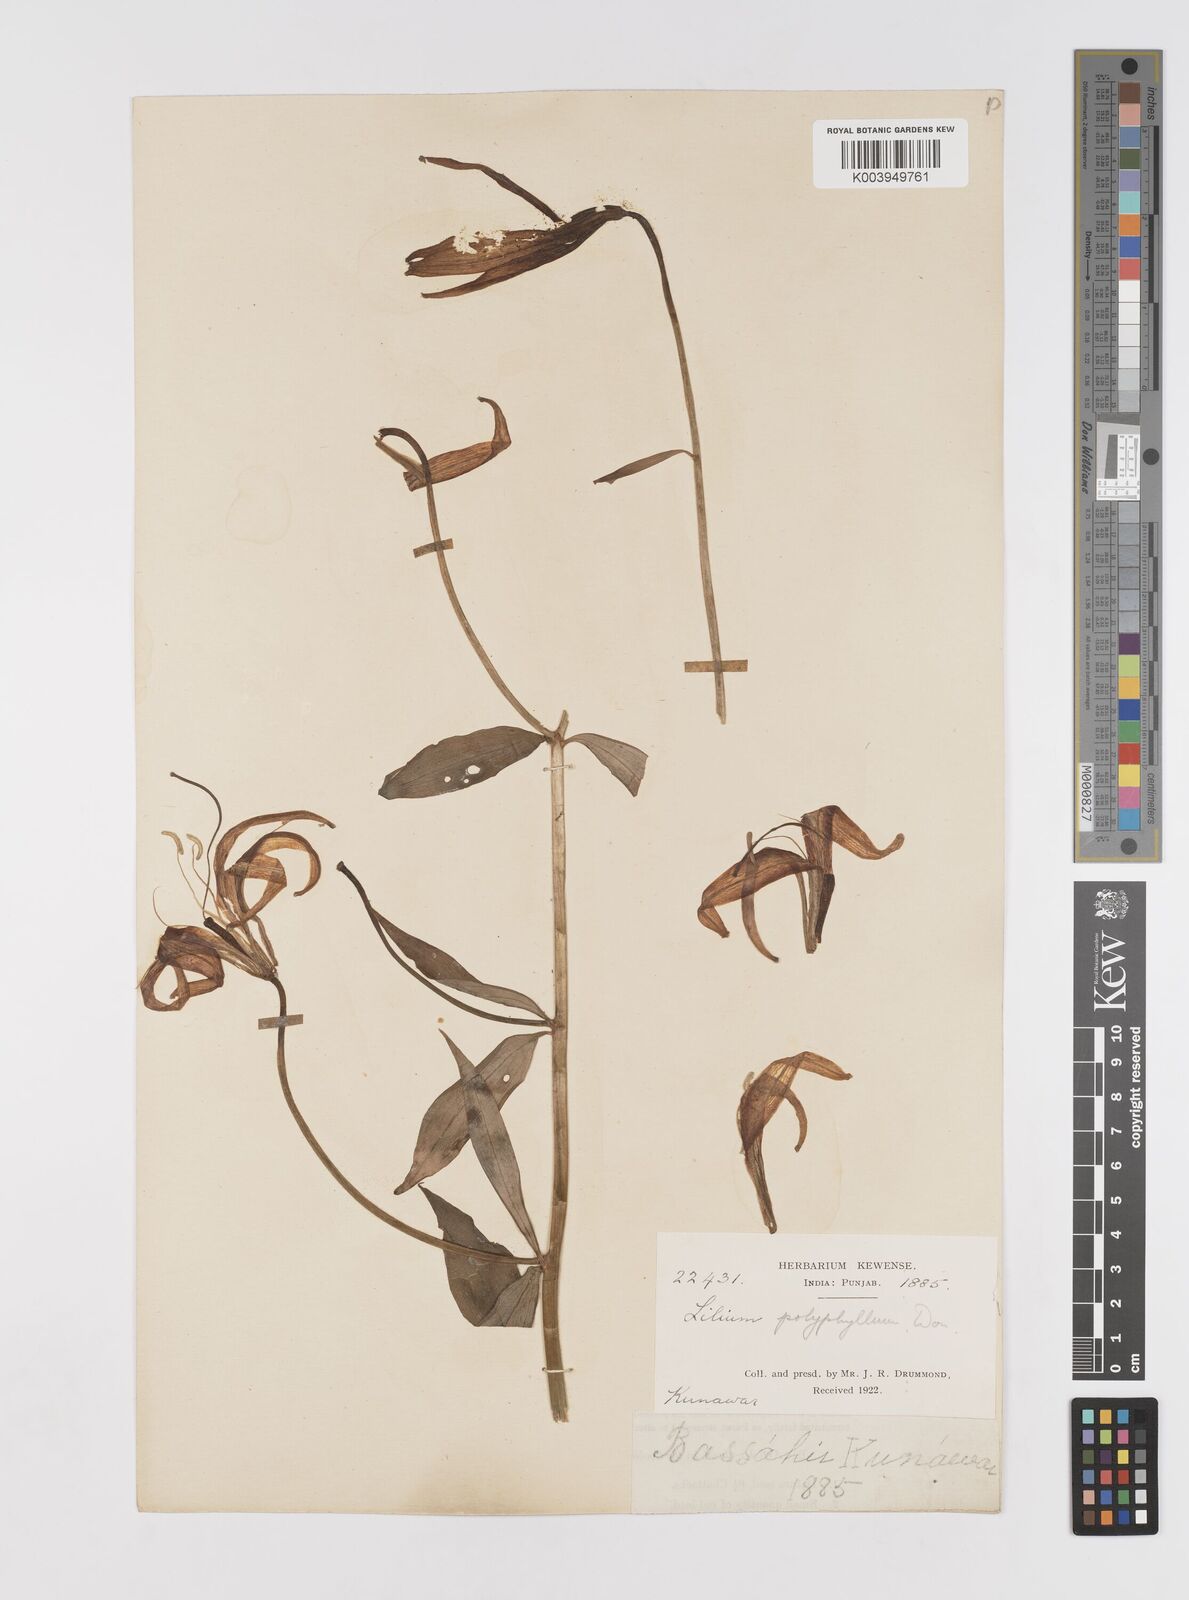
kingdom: Plantae
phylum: Tracheophyta
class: Liliopsida
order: Liliales
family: Liliaceae
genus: Lilium
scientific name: Lilium polyphyllum
